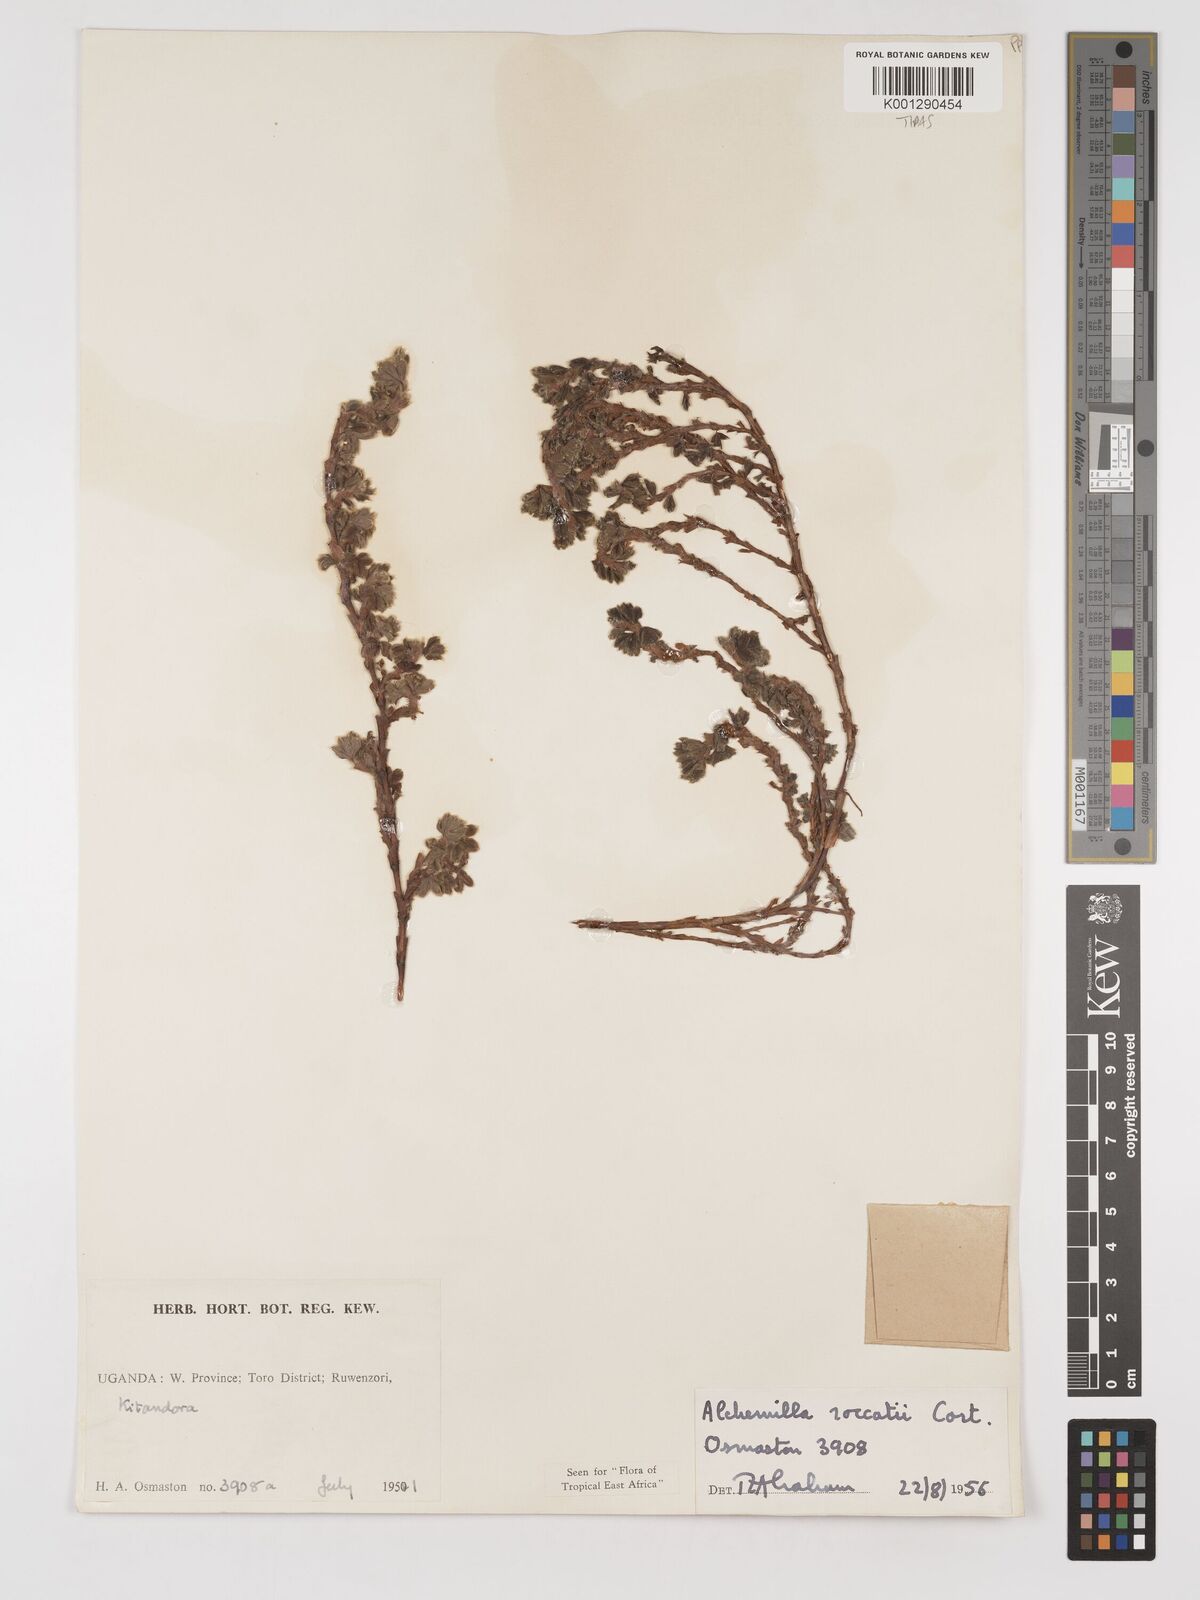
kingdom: Plantae
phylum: Tracheophyta
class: Magnoliopsida
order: Rosales
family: Rosaceae
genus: Alchemilla
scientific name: Alchemilla roccatii
